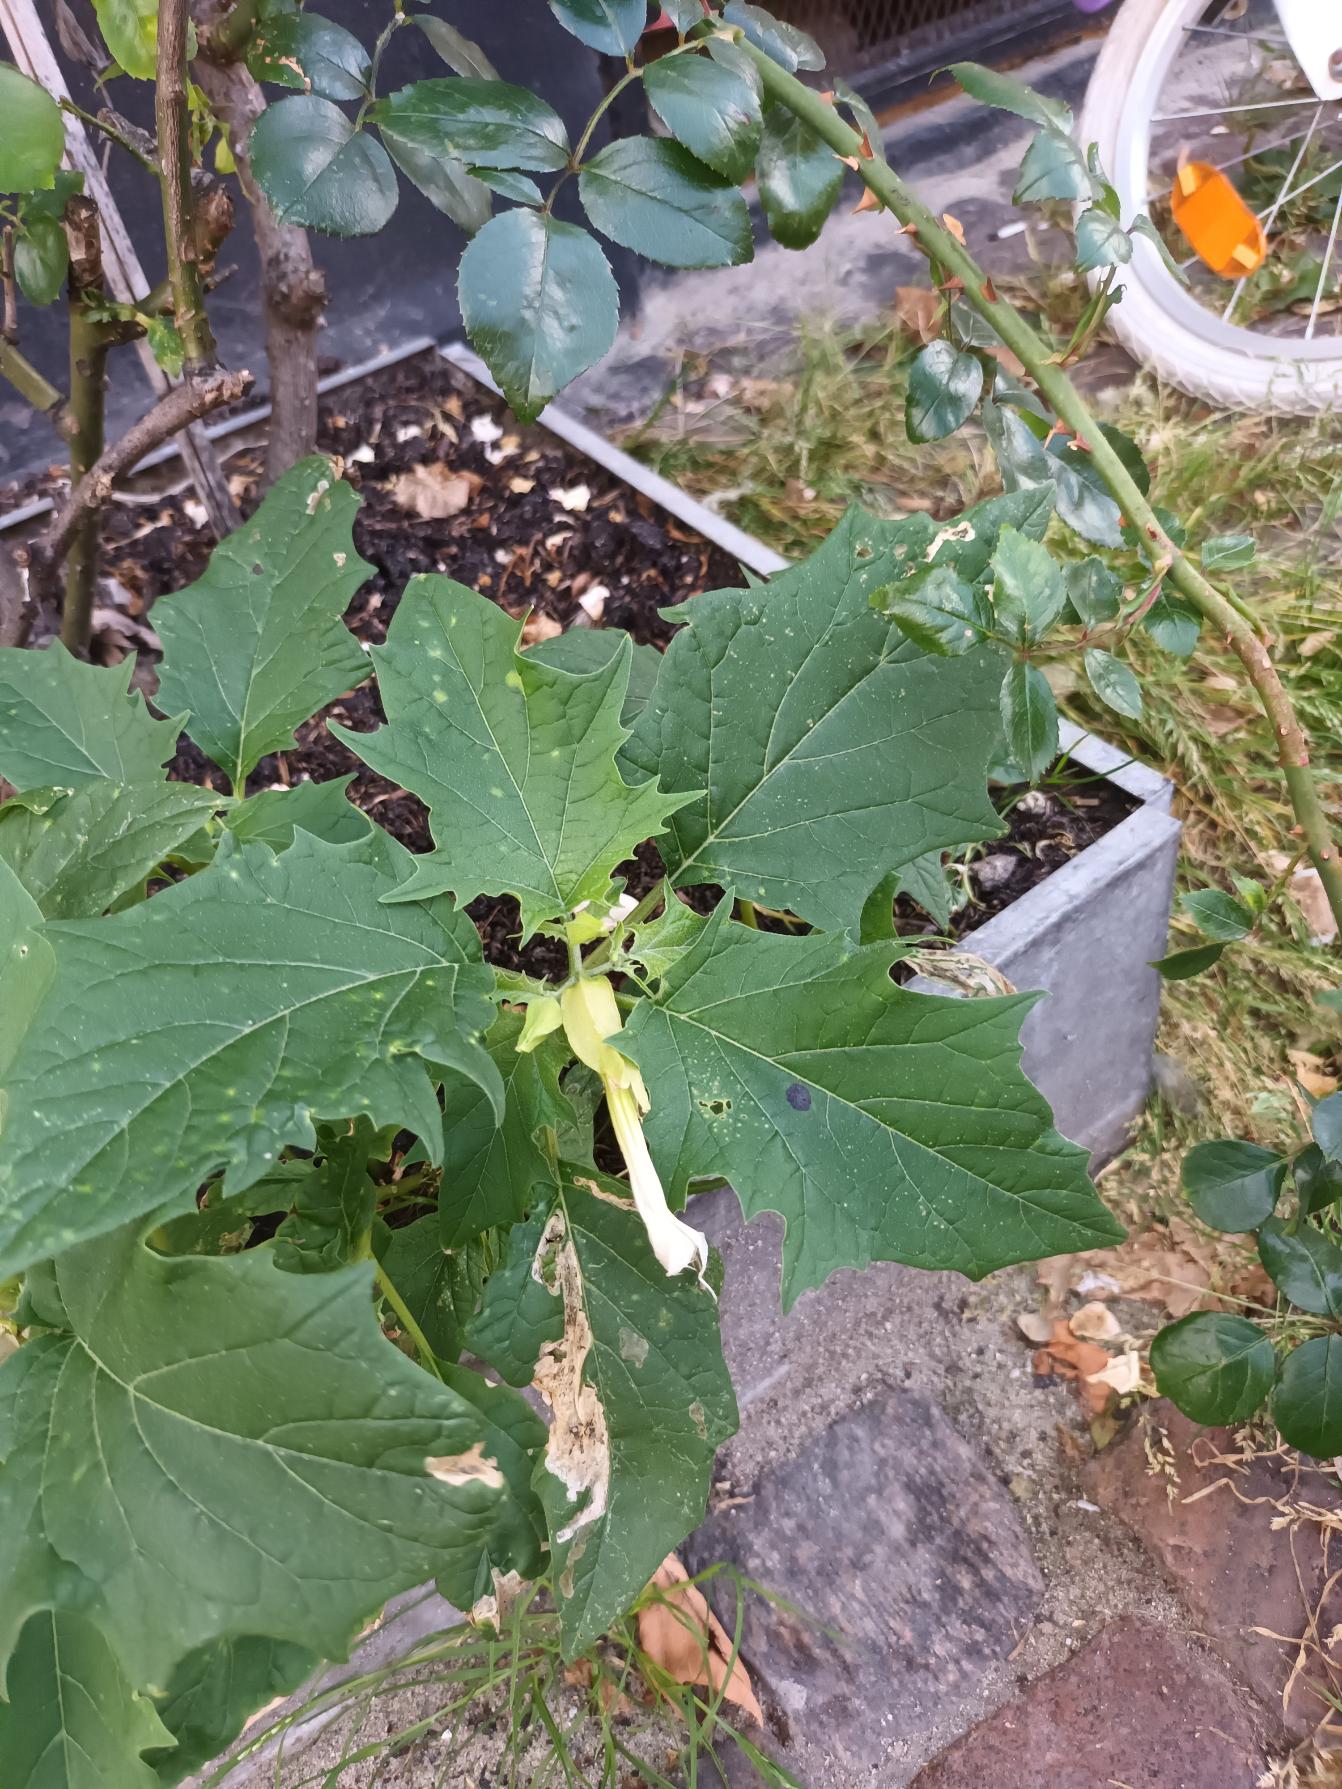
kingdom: Plantae
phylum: Tracheophyta
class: Magnoliopsida
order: Solanales
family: Solanaceae
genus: Datura
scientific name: Datura stramonium
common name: Pigæble
